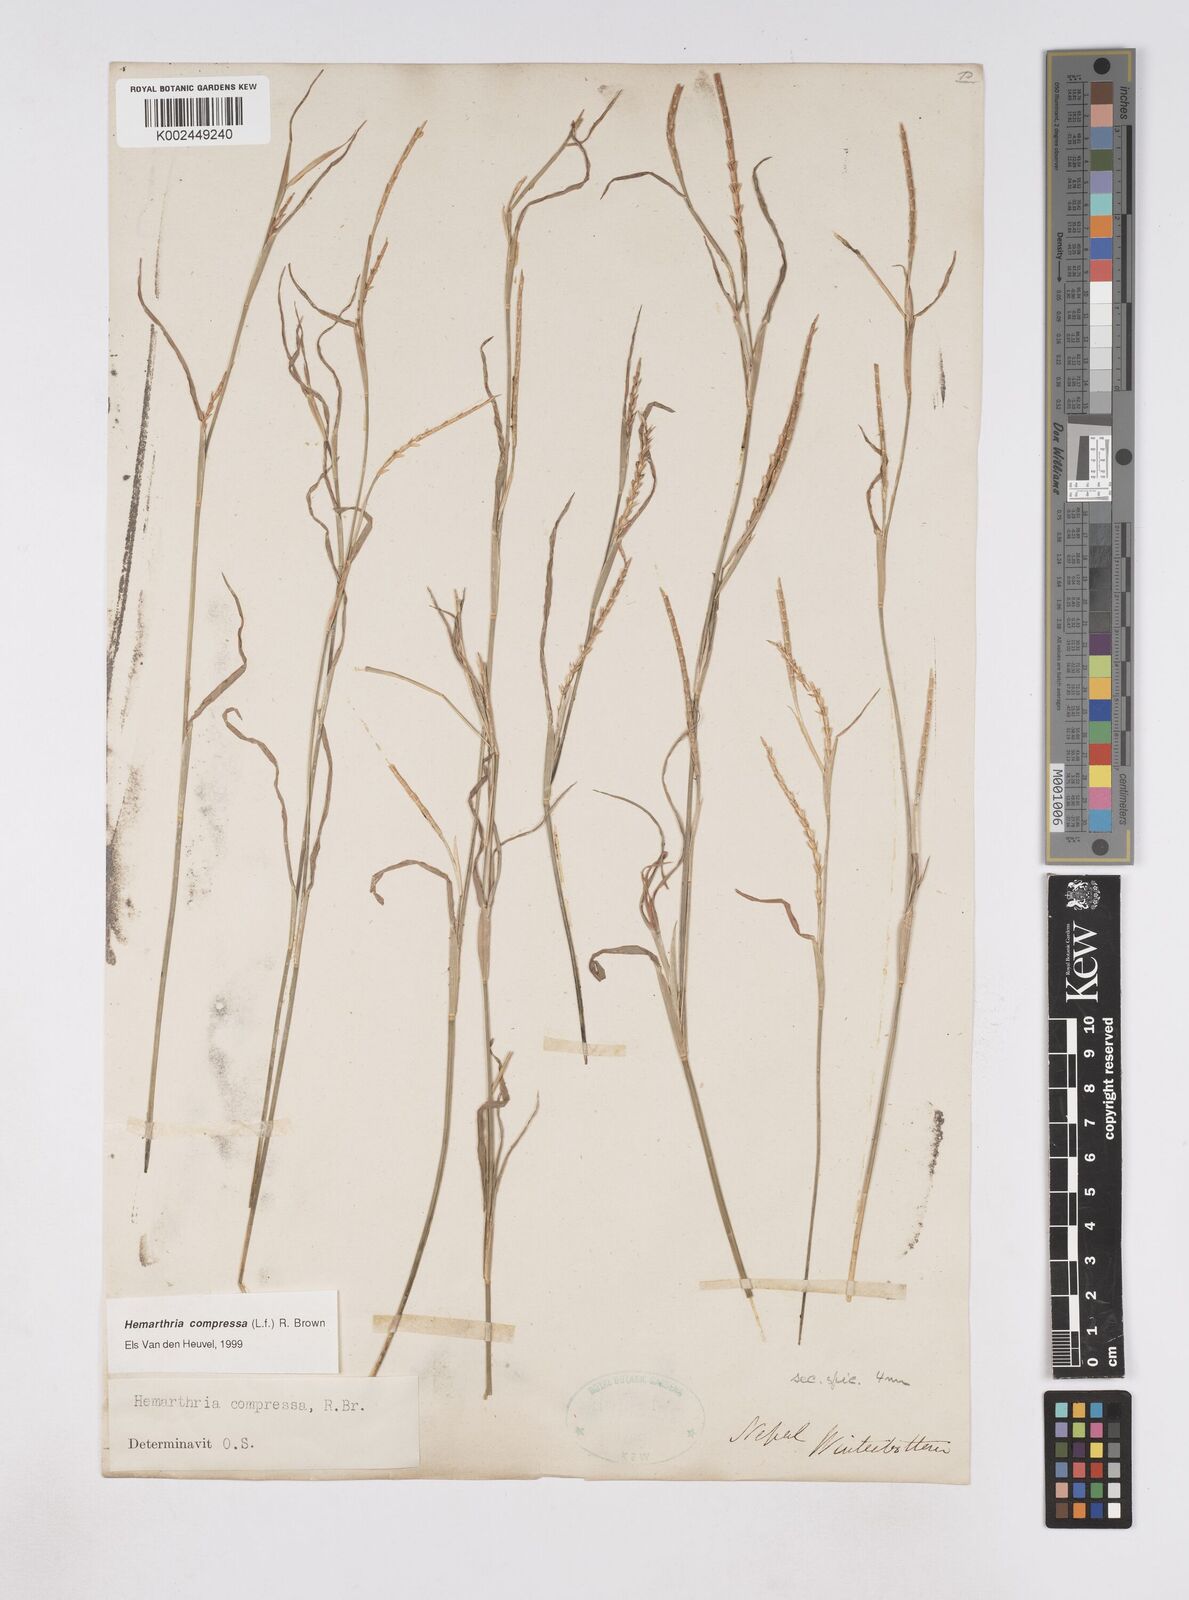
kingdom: Plantae
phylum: Tracheophyta
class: Liliopsida
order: Poales
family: Poaceae
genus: Hemarthria
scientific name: Hemarthria compressa
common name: Whip grass
